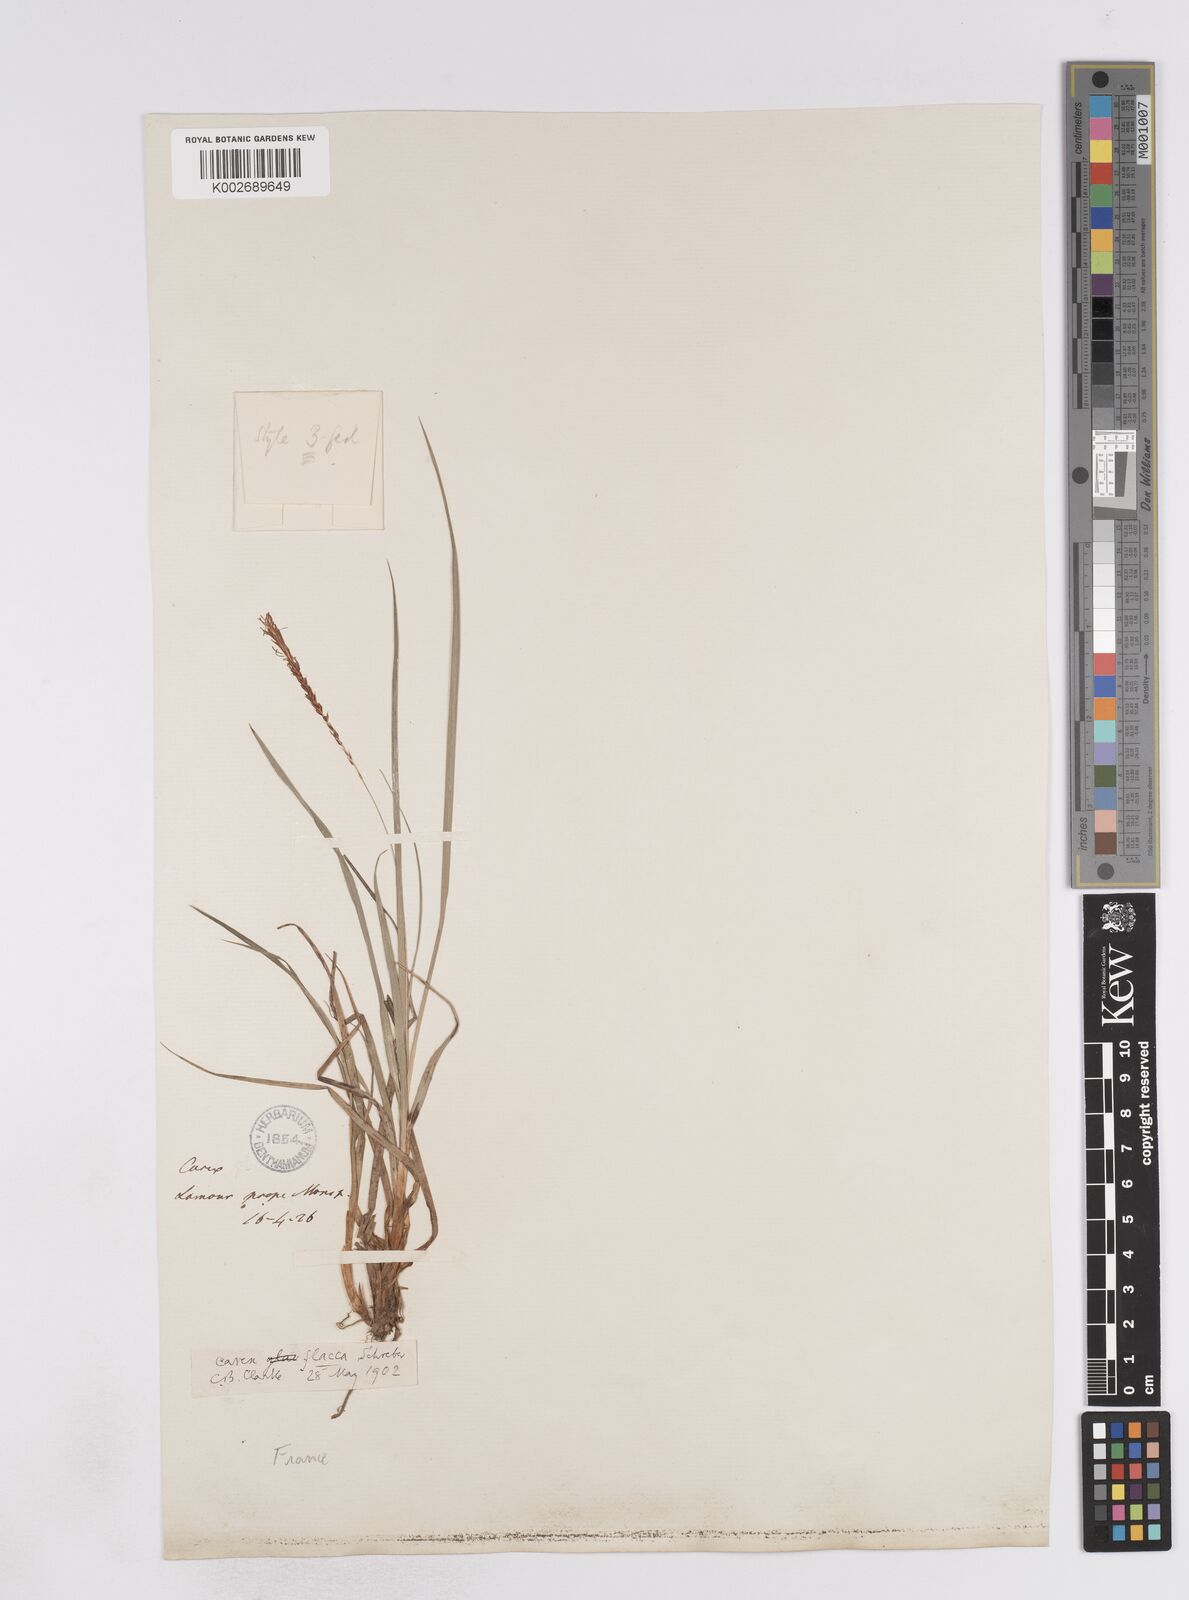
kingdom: Plantae
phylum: Tracheophyta
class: Liliopsida
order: Poales
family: Cyperaceae
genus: Carex
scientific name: Carex flacca
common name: Glaucous sedge
